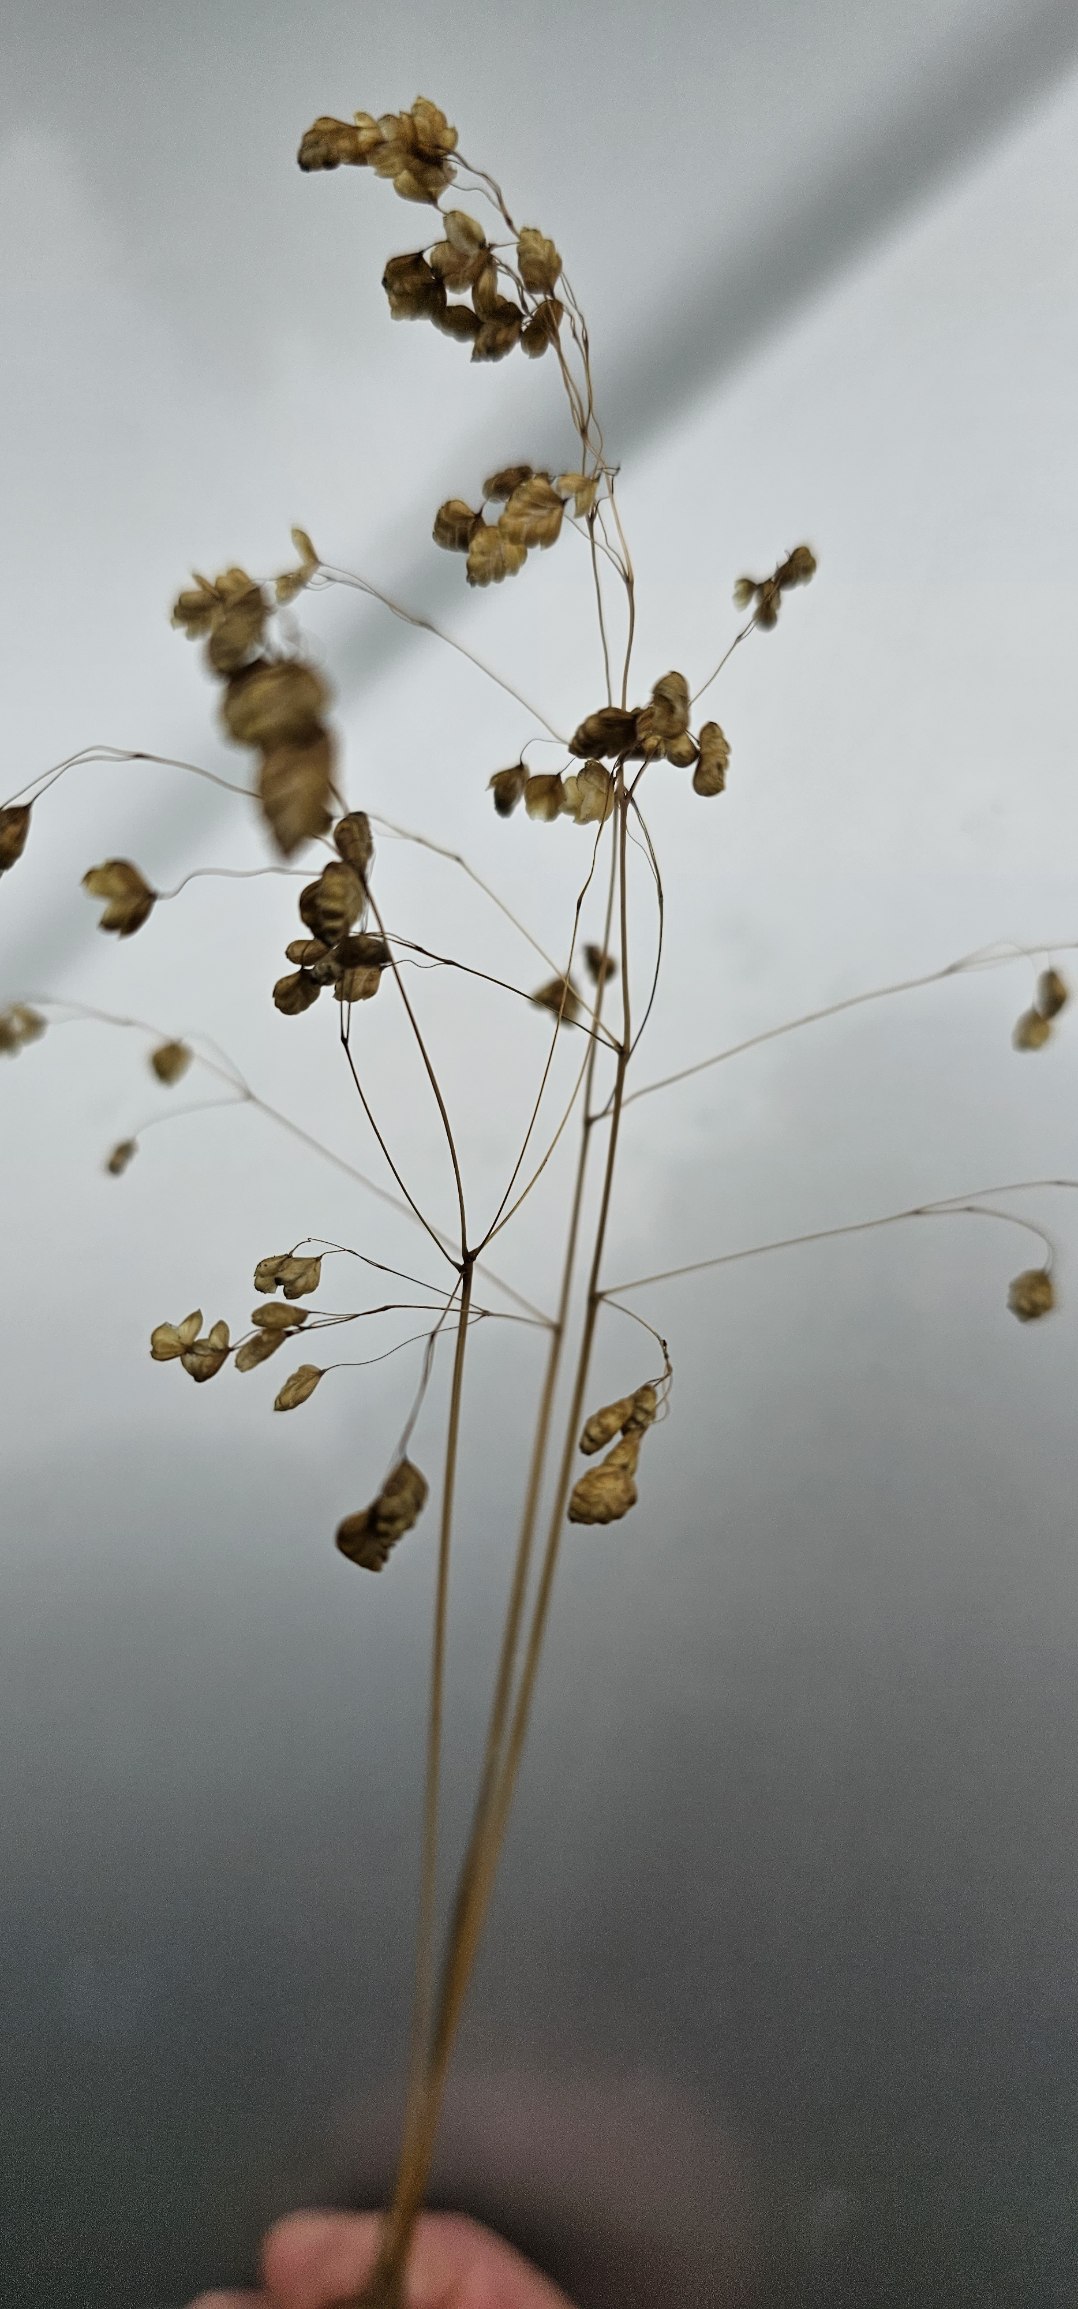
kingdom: Plantae
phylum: Tracheophyta
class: Liliopsida
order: Poales
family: Poaceae
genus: Briza
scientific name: Briza media
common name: Hjertegræs
